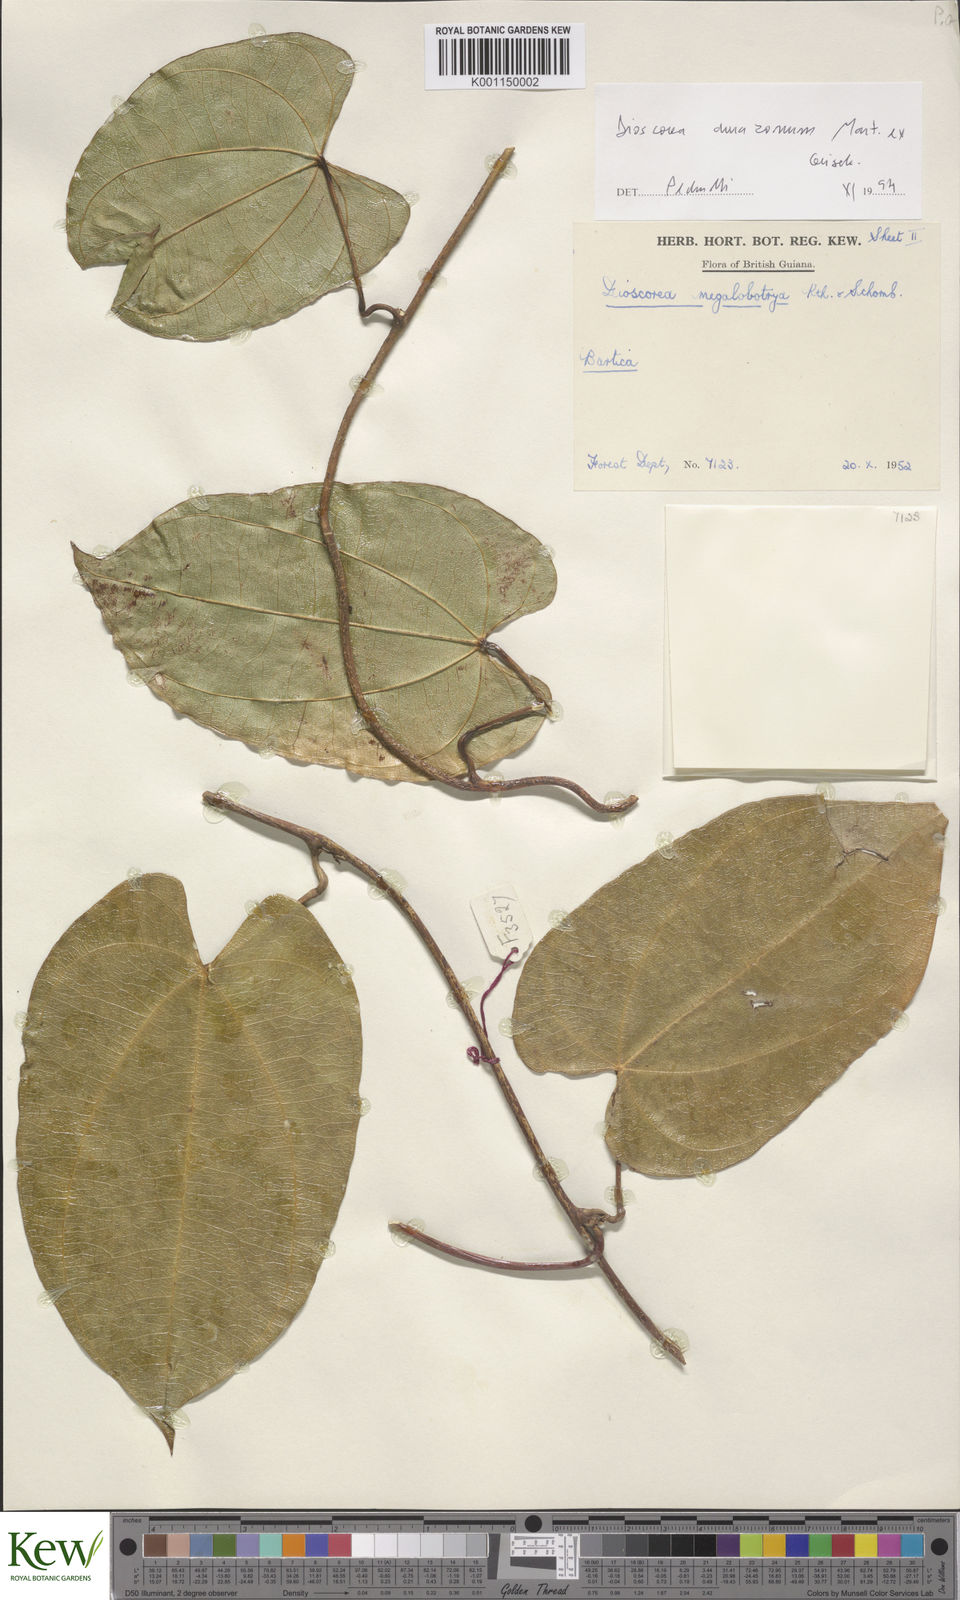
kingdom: Plantae
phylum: Tracheophyta
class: Liliopsida
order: Dioscoreales
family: Dioscoreaceae
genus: Dioscorea
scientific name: Dioscorea amazonum
